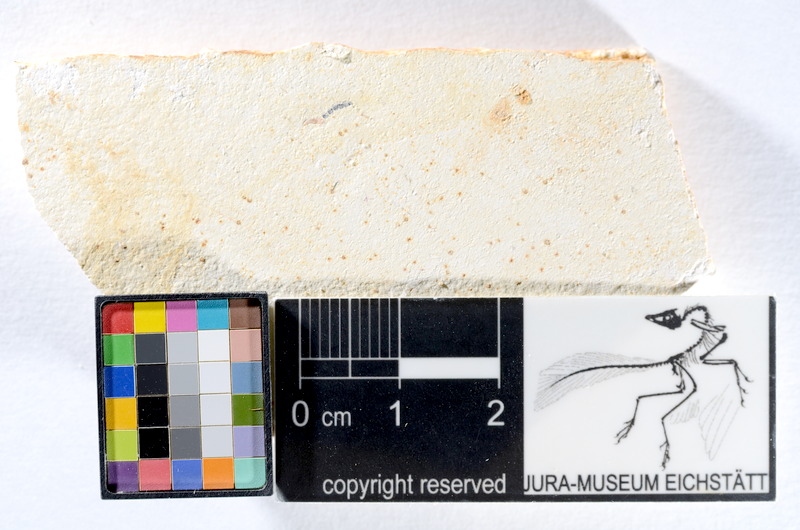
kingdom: Animalia
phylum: Chordata
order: Salmoniformes
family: Orthogonikleithridae
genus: Orthogonikleithrus
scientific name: Orthogonikleithrus hoelli
